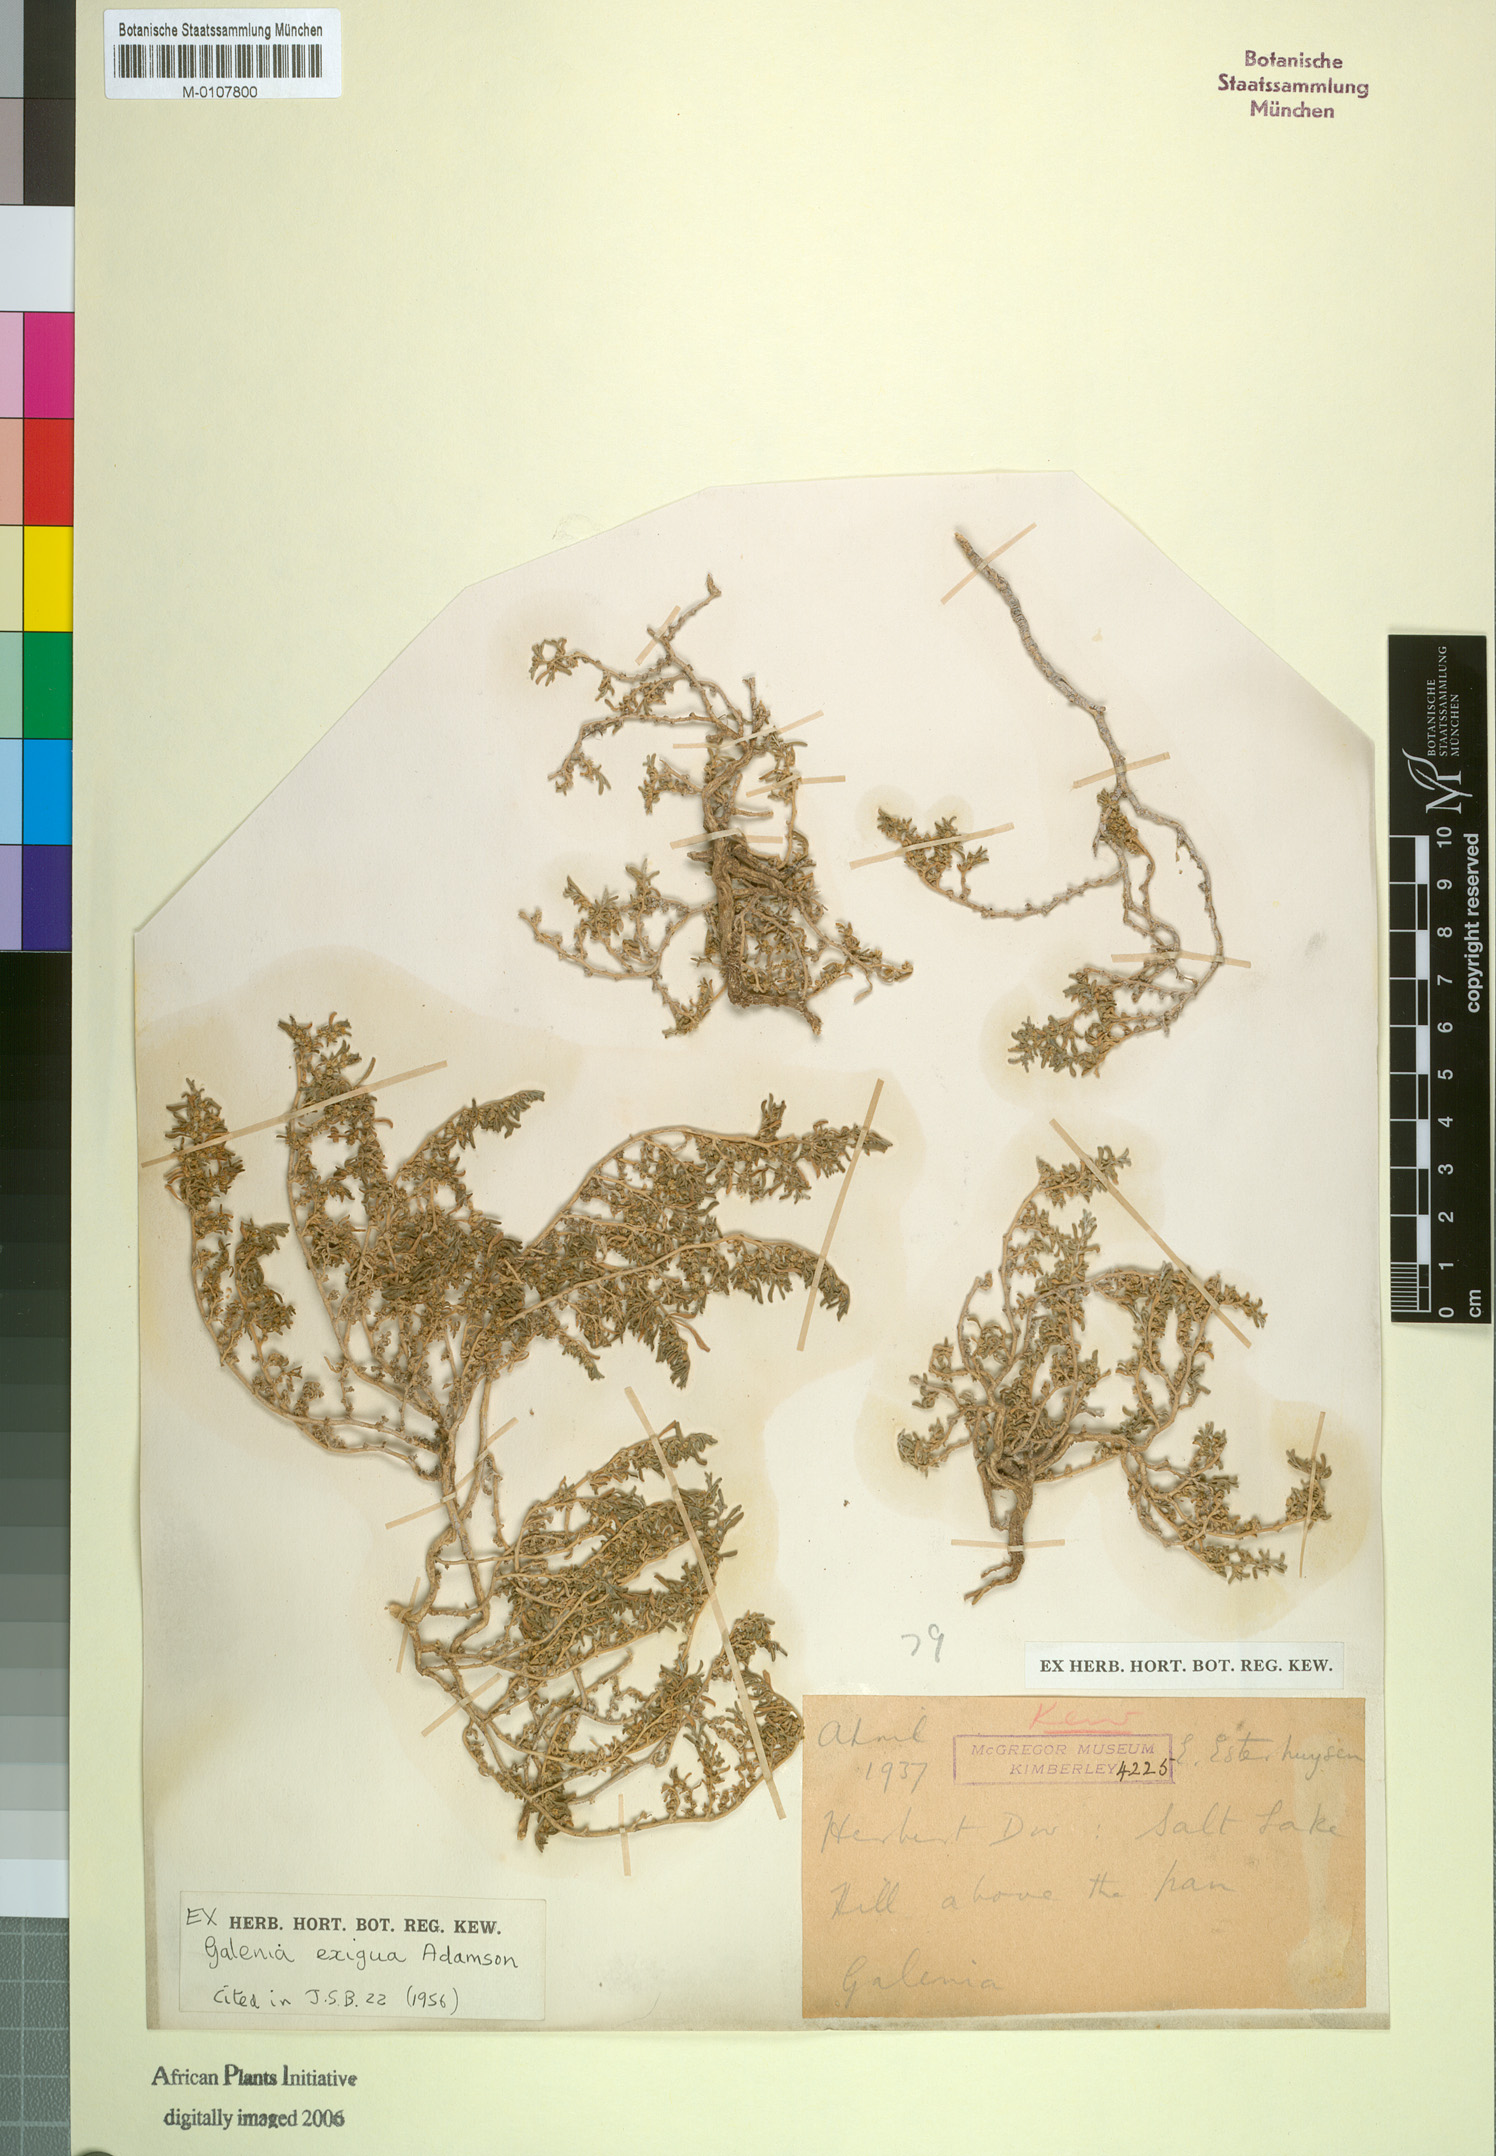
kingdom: Plantae
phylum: Tracheophyta
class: Magnoliopsida
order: Caryophyllales
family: Aizoaceae
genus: Aizoon
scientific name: Aizoon exiguum
